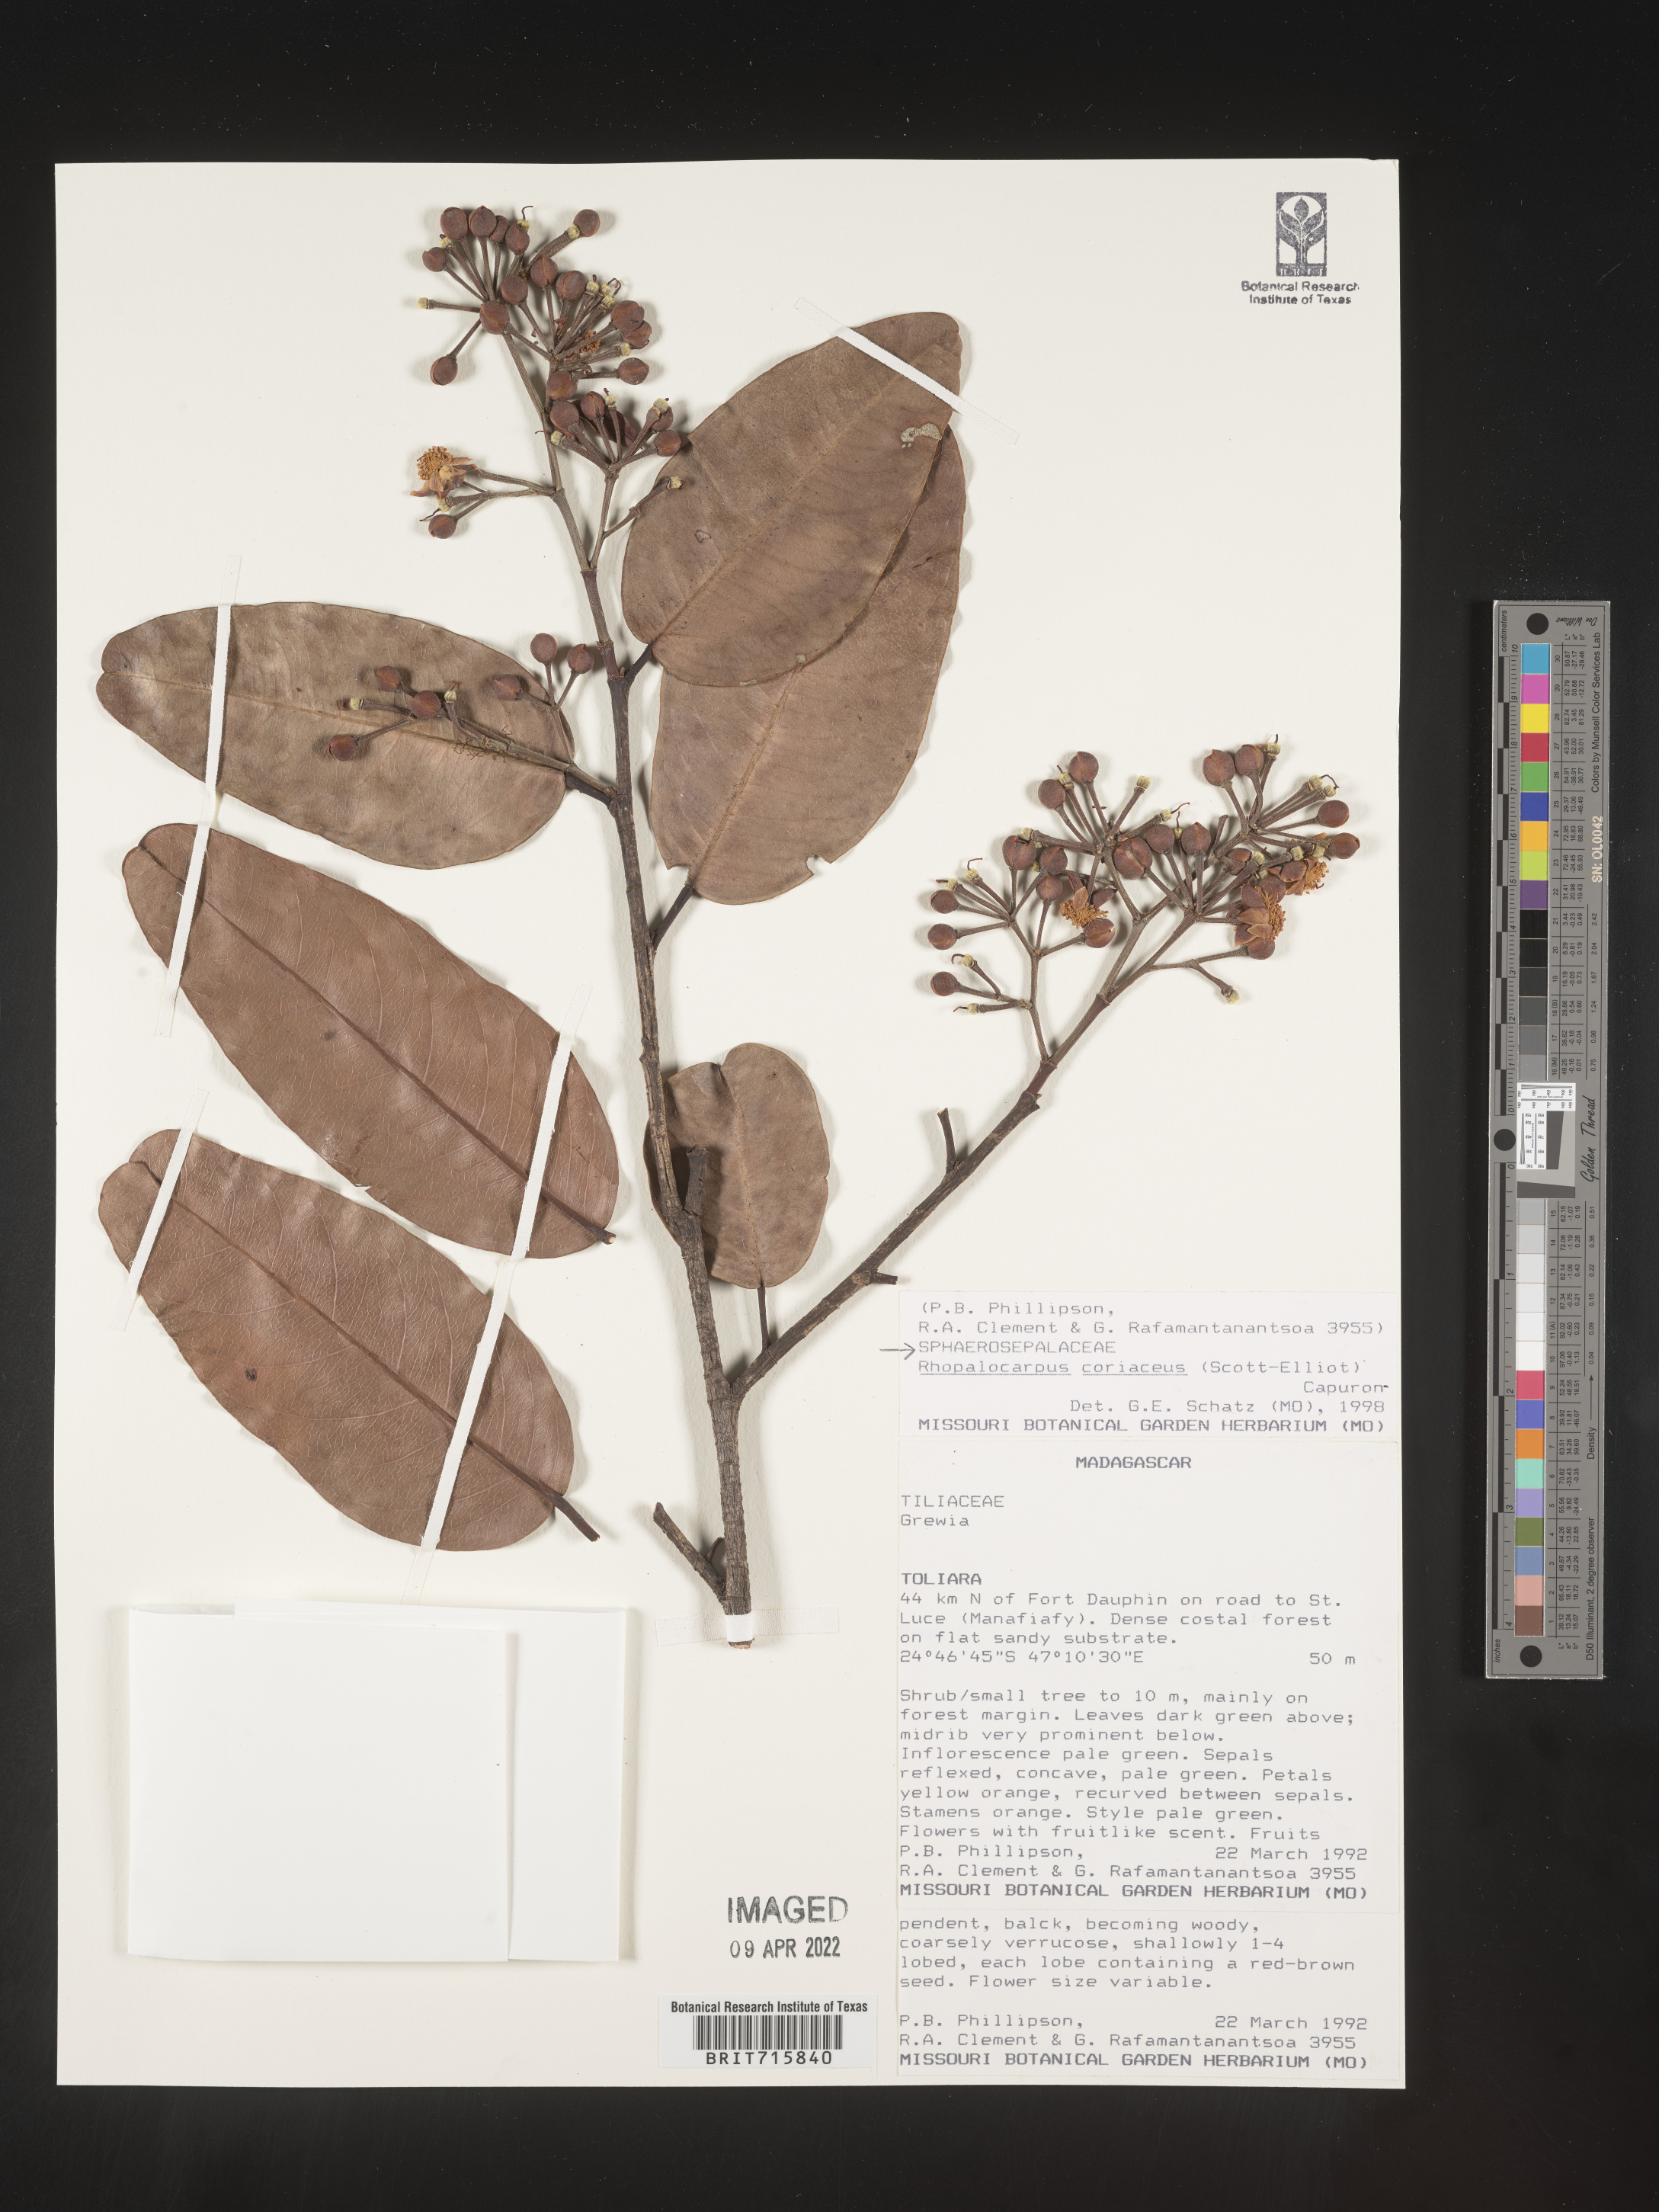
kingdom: Plantae
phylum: Tracheophyta
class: Magnoliopsida
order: Malvales
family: Sphaerosepalaceae
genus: Rhopalocarpus
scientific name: Rhopalocarpus
